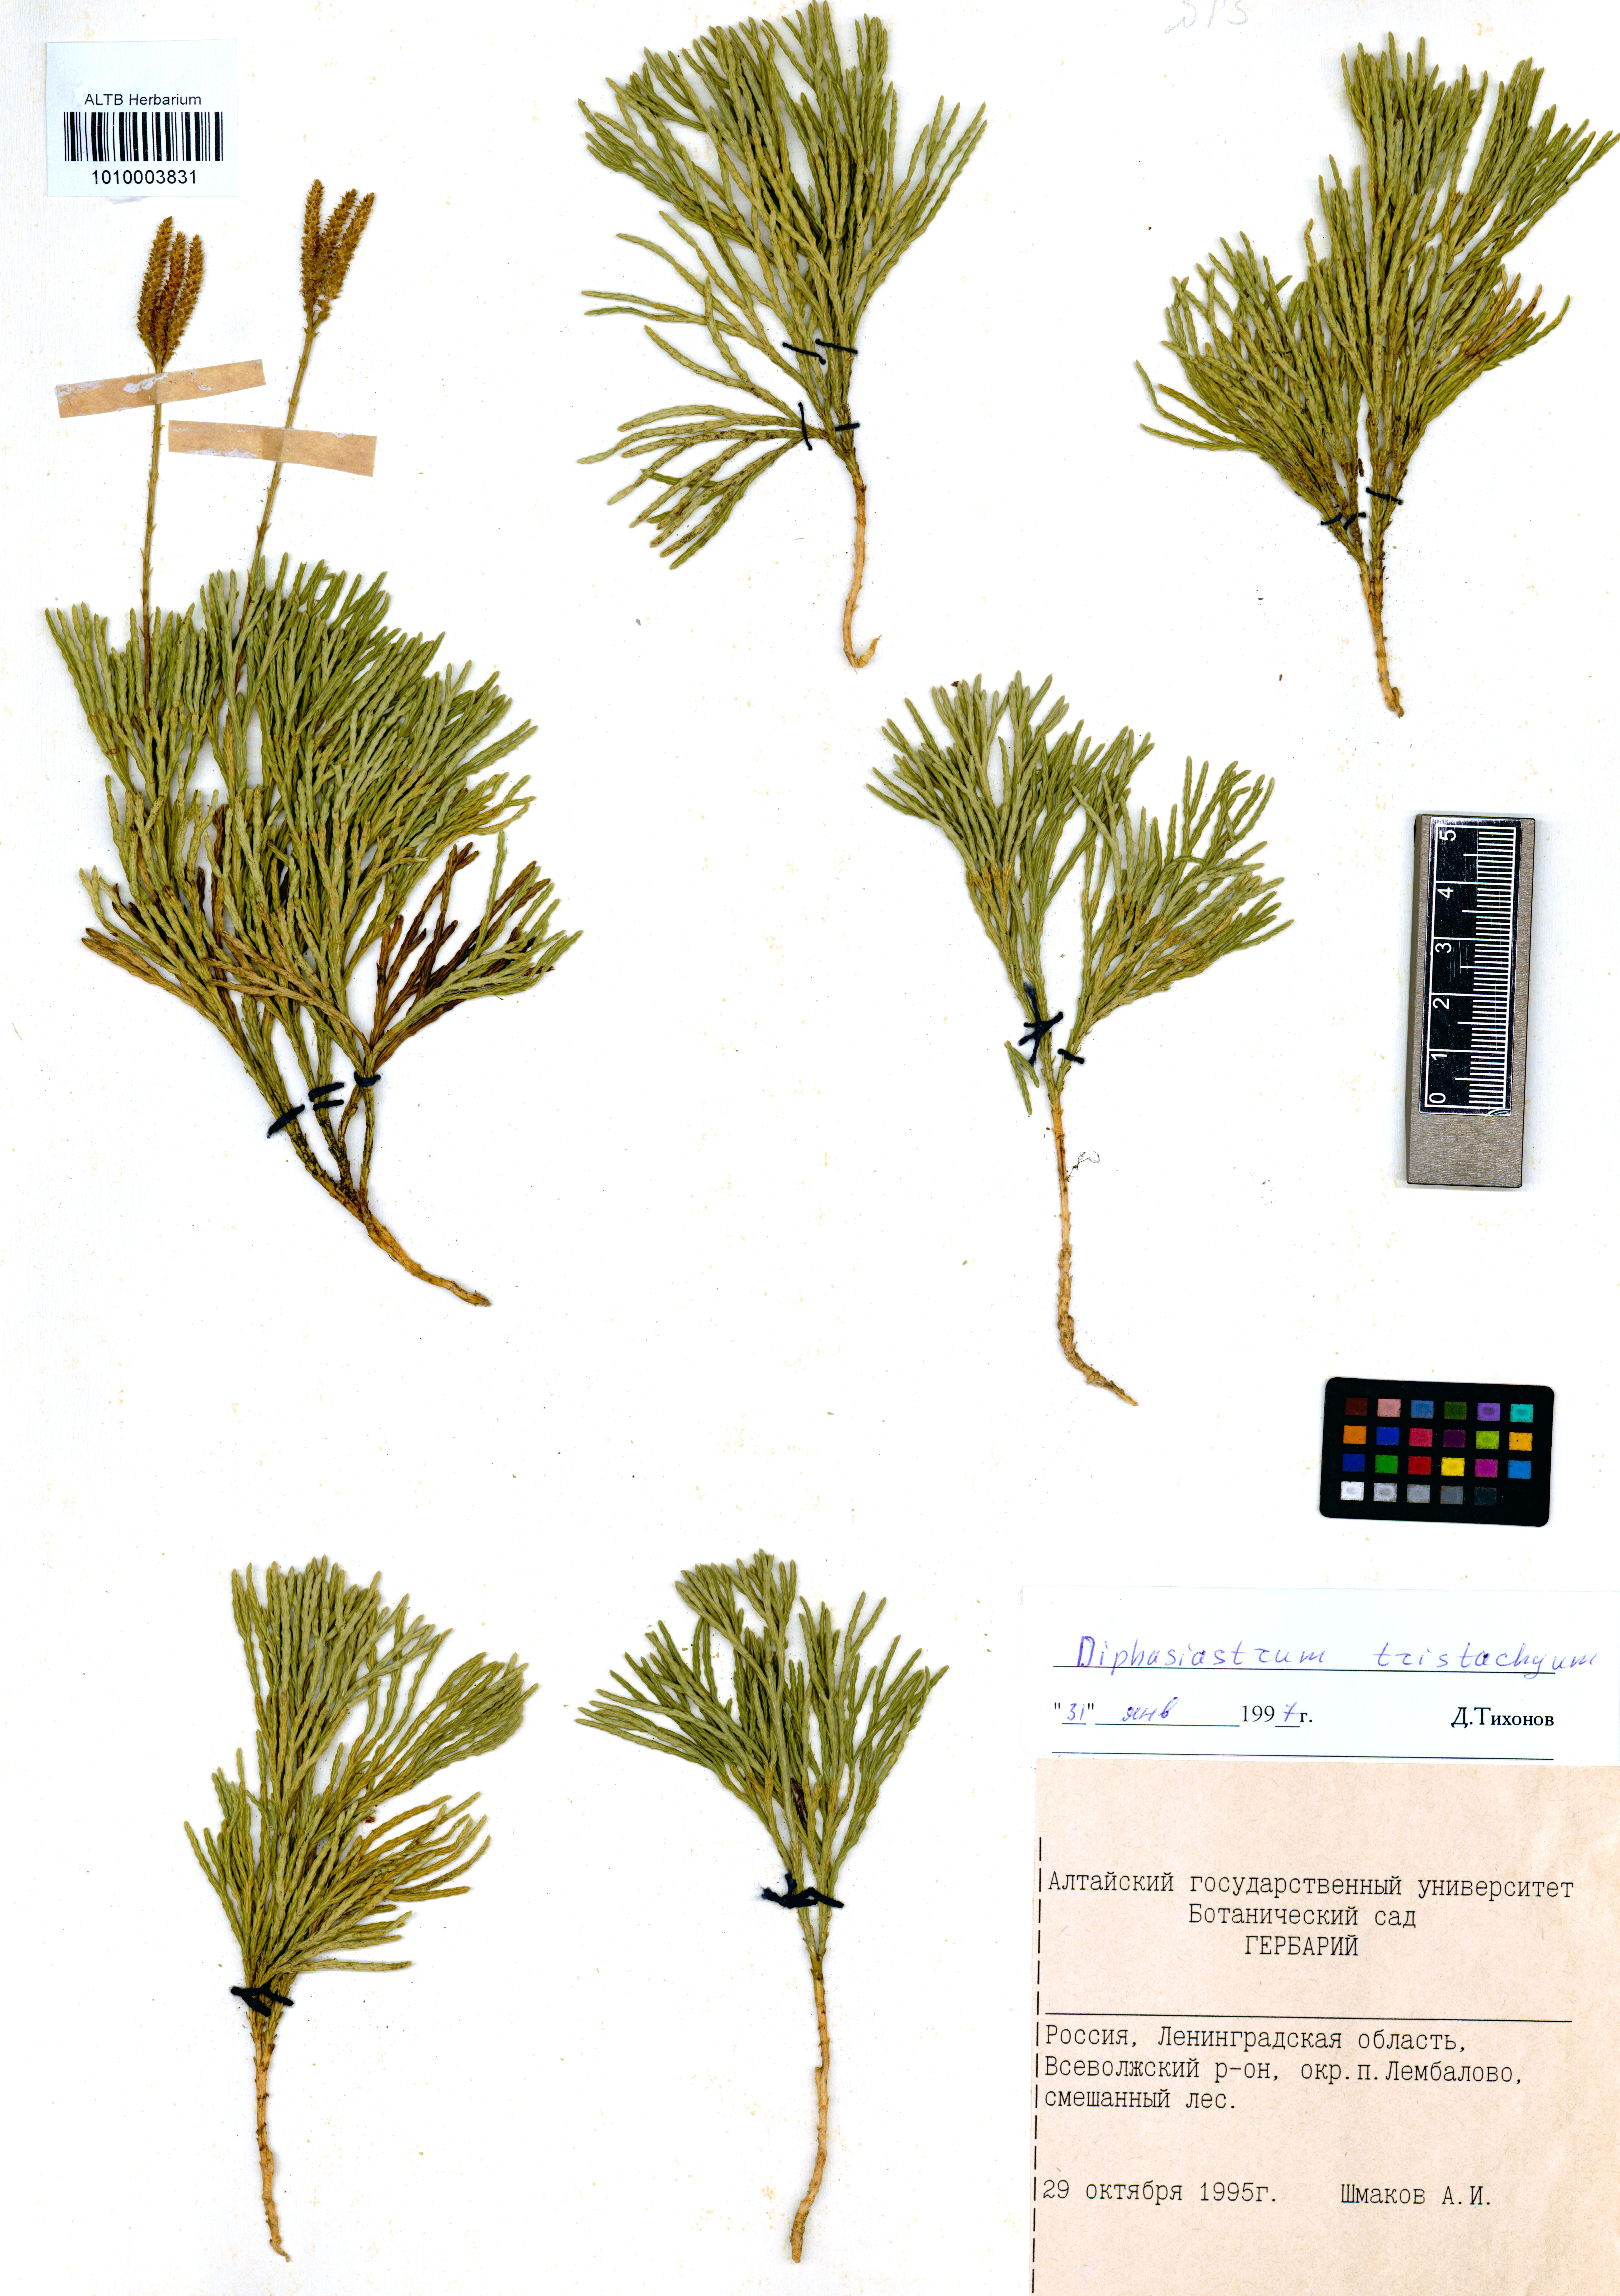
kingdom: Plantae
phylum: Tracheophyta
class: Lycopodiopsida
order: Lycopodiales
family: Lycopodiaceae
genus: Diphasiastrum
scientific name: Diphasiastrum tristachyum
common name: Blue ground-cedar
